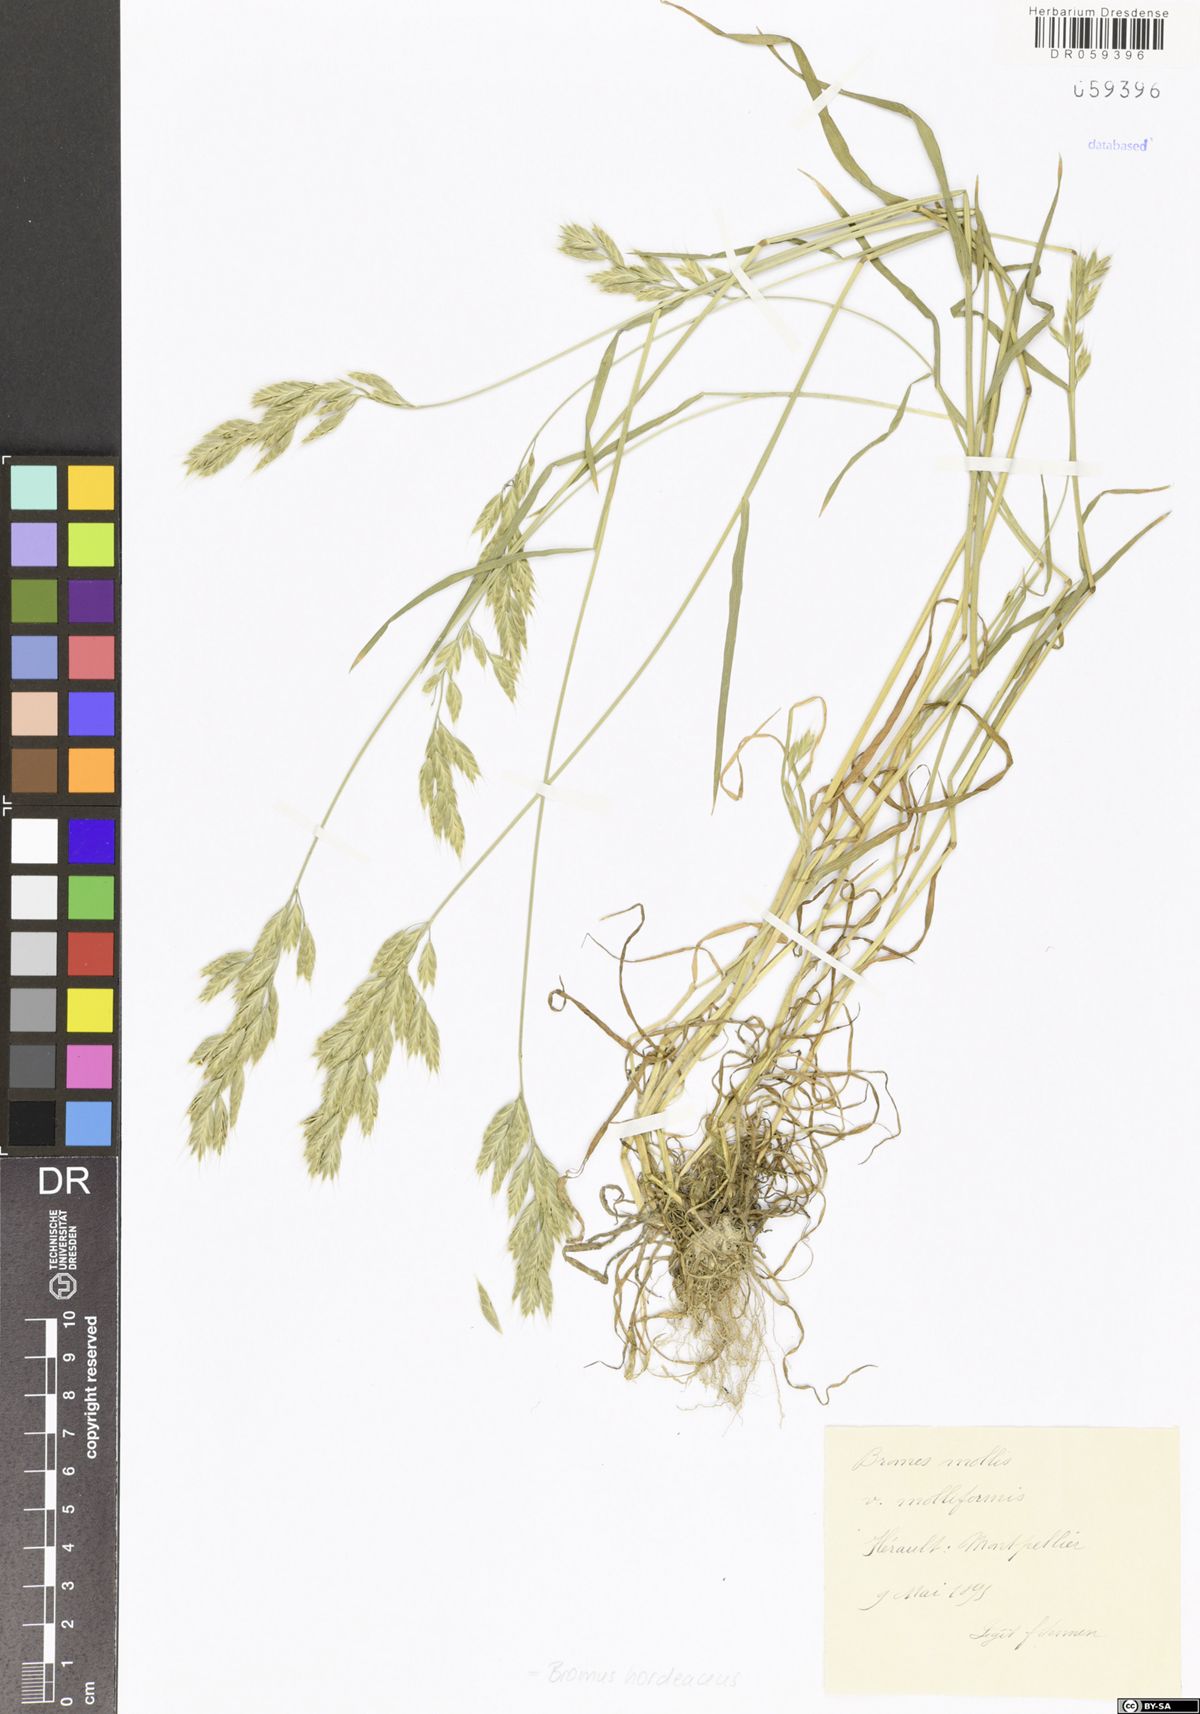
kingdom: Plantae
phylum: Tracheophyta
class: Liliopsida
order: Poales
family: Poaceae
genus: Bromus
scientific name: Bromus hordeaceus
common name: Soft brome
